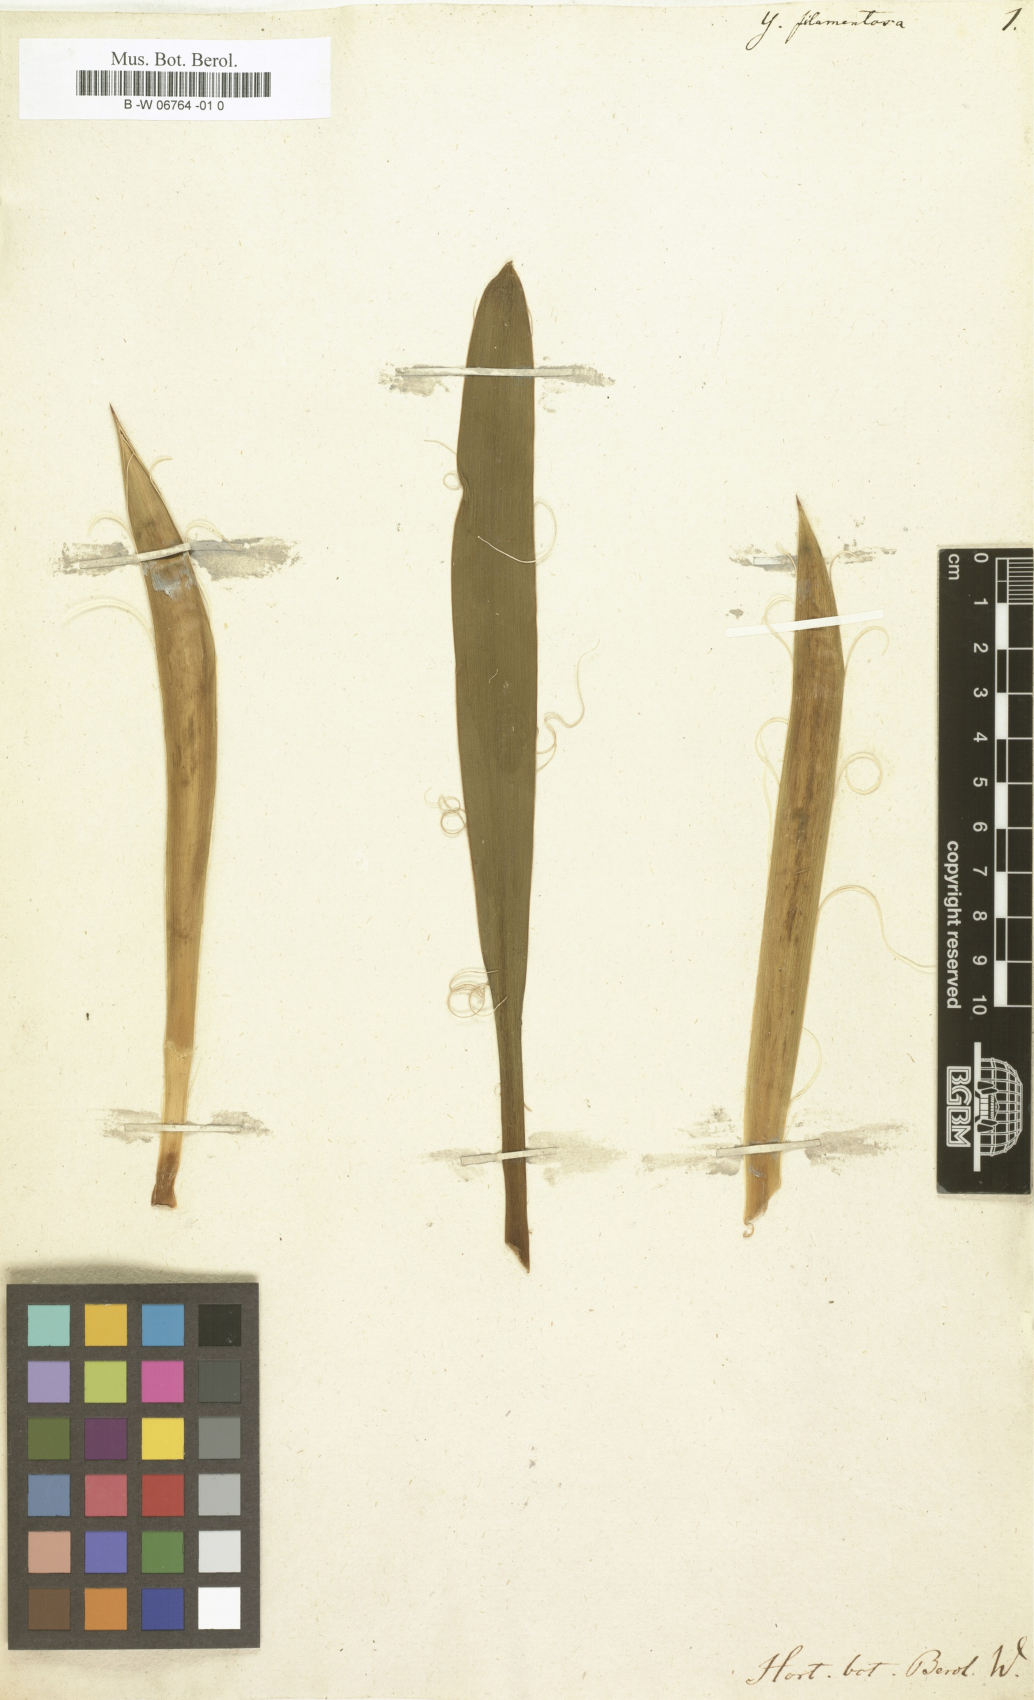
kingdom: Plantae
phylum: Tracheophyta
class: Liliopsida
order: Asparagales
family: Asparagaceae
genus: Yucca
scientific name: Yucca filamentosa
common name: Adam's-needle
